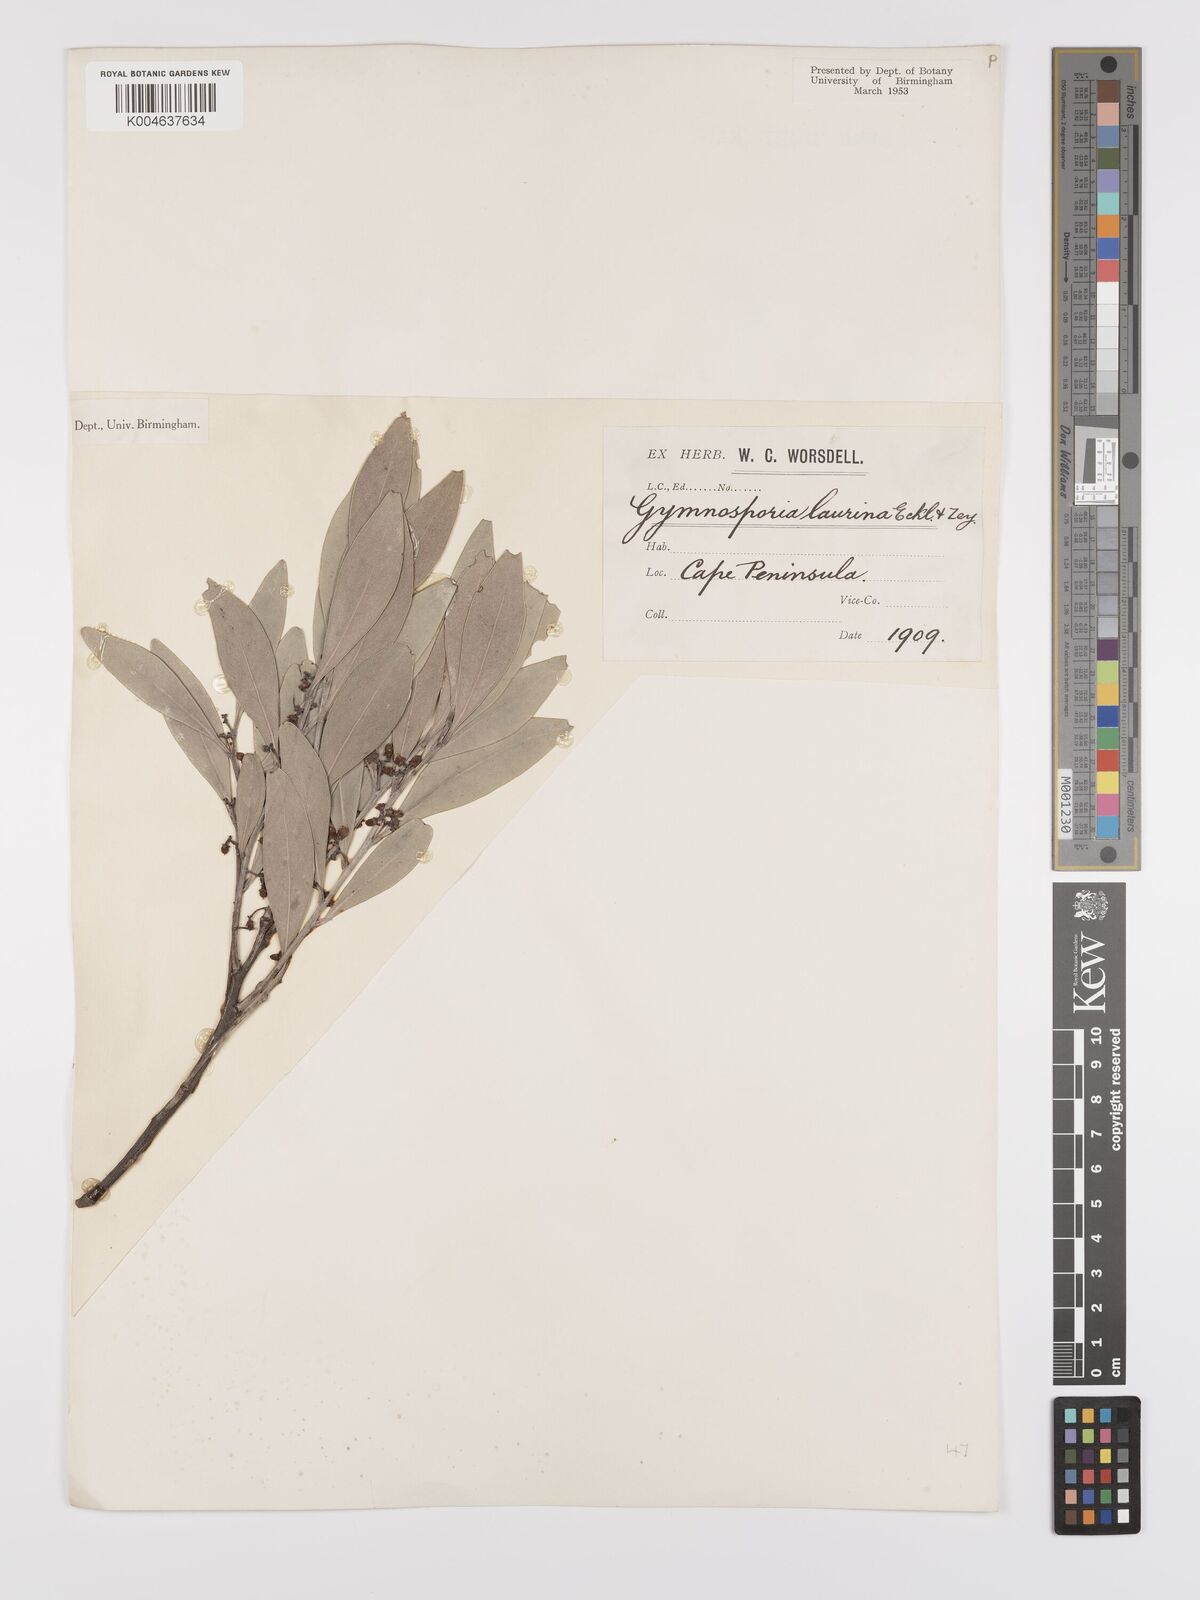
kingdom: Plantae
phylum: Tracheophyta
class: Magnoliopsida
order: Celastrales
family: Celastraceae
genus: Gymnosporia
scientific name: Gymnosporia laurina
